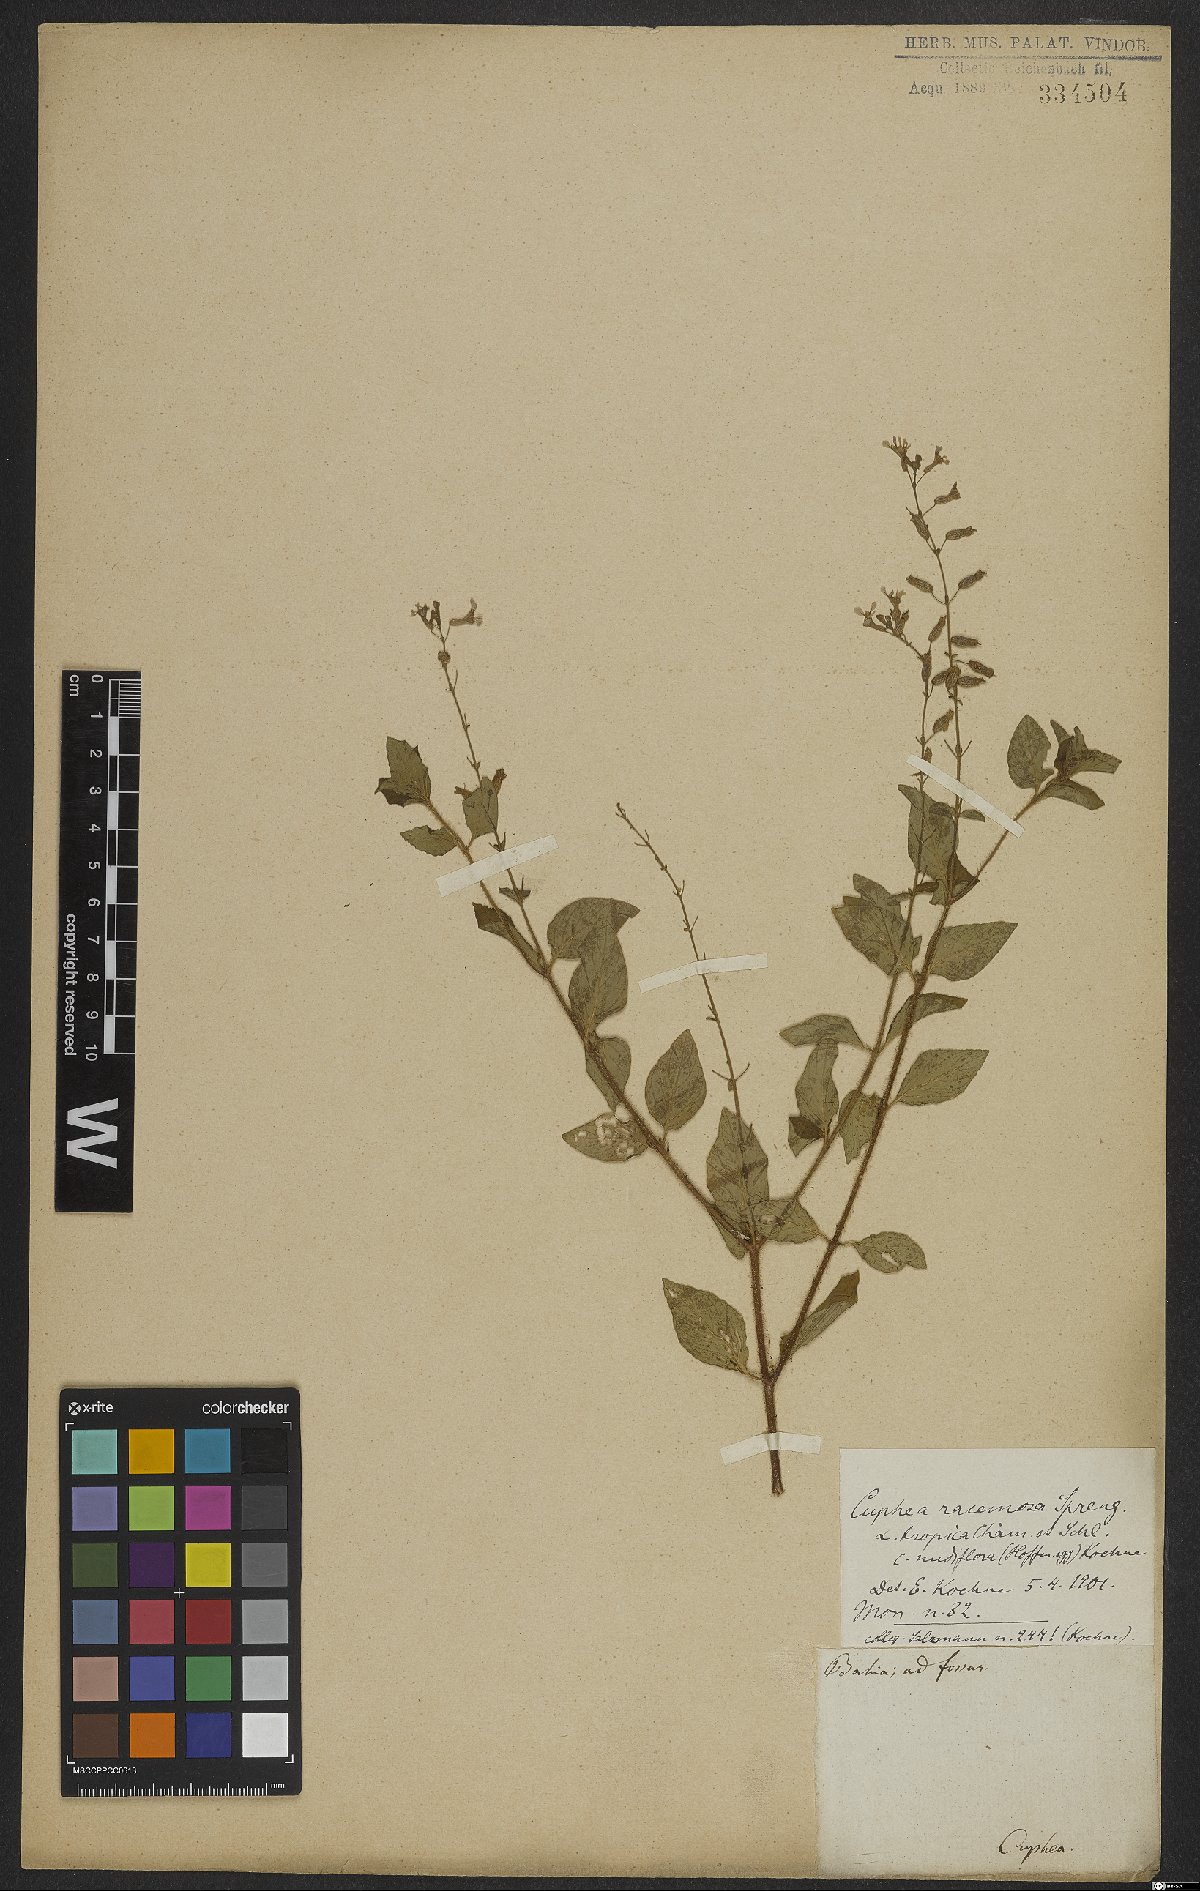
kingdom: Plantae
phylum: Tracheophyta
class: Magnoliopsida
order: Myrtales
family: Lythraceae
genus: Cuphea
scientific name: Cuphea racemosa
